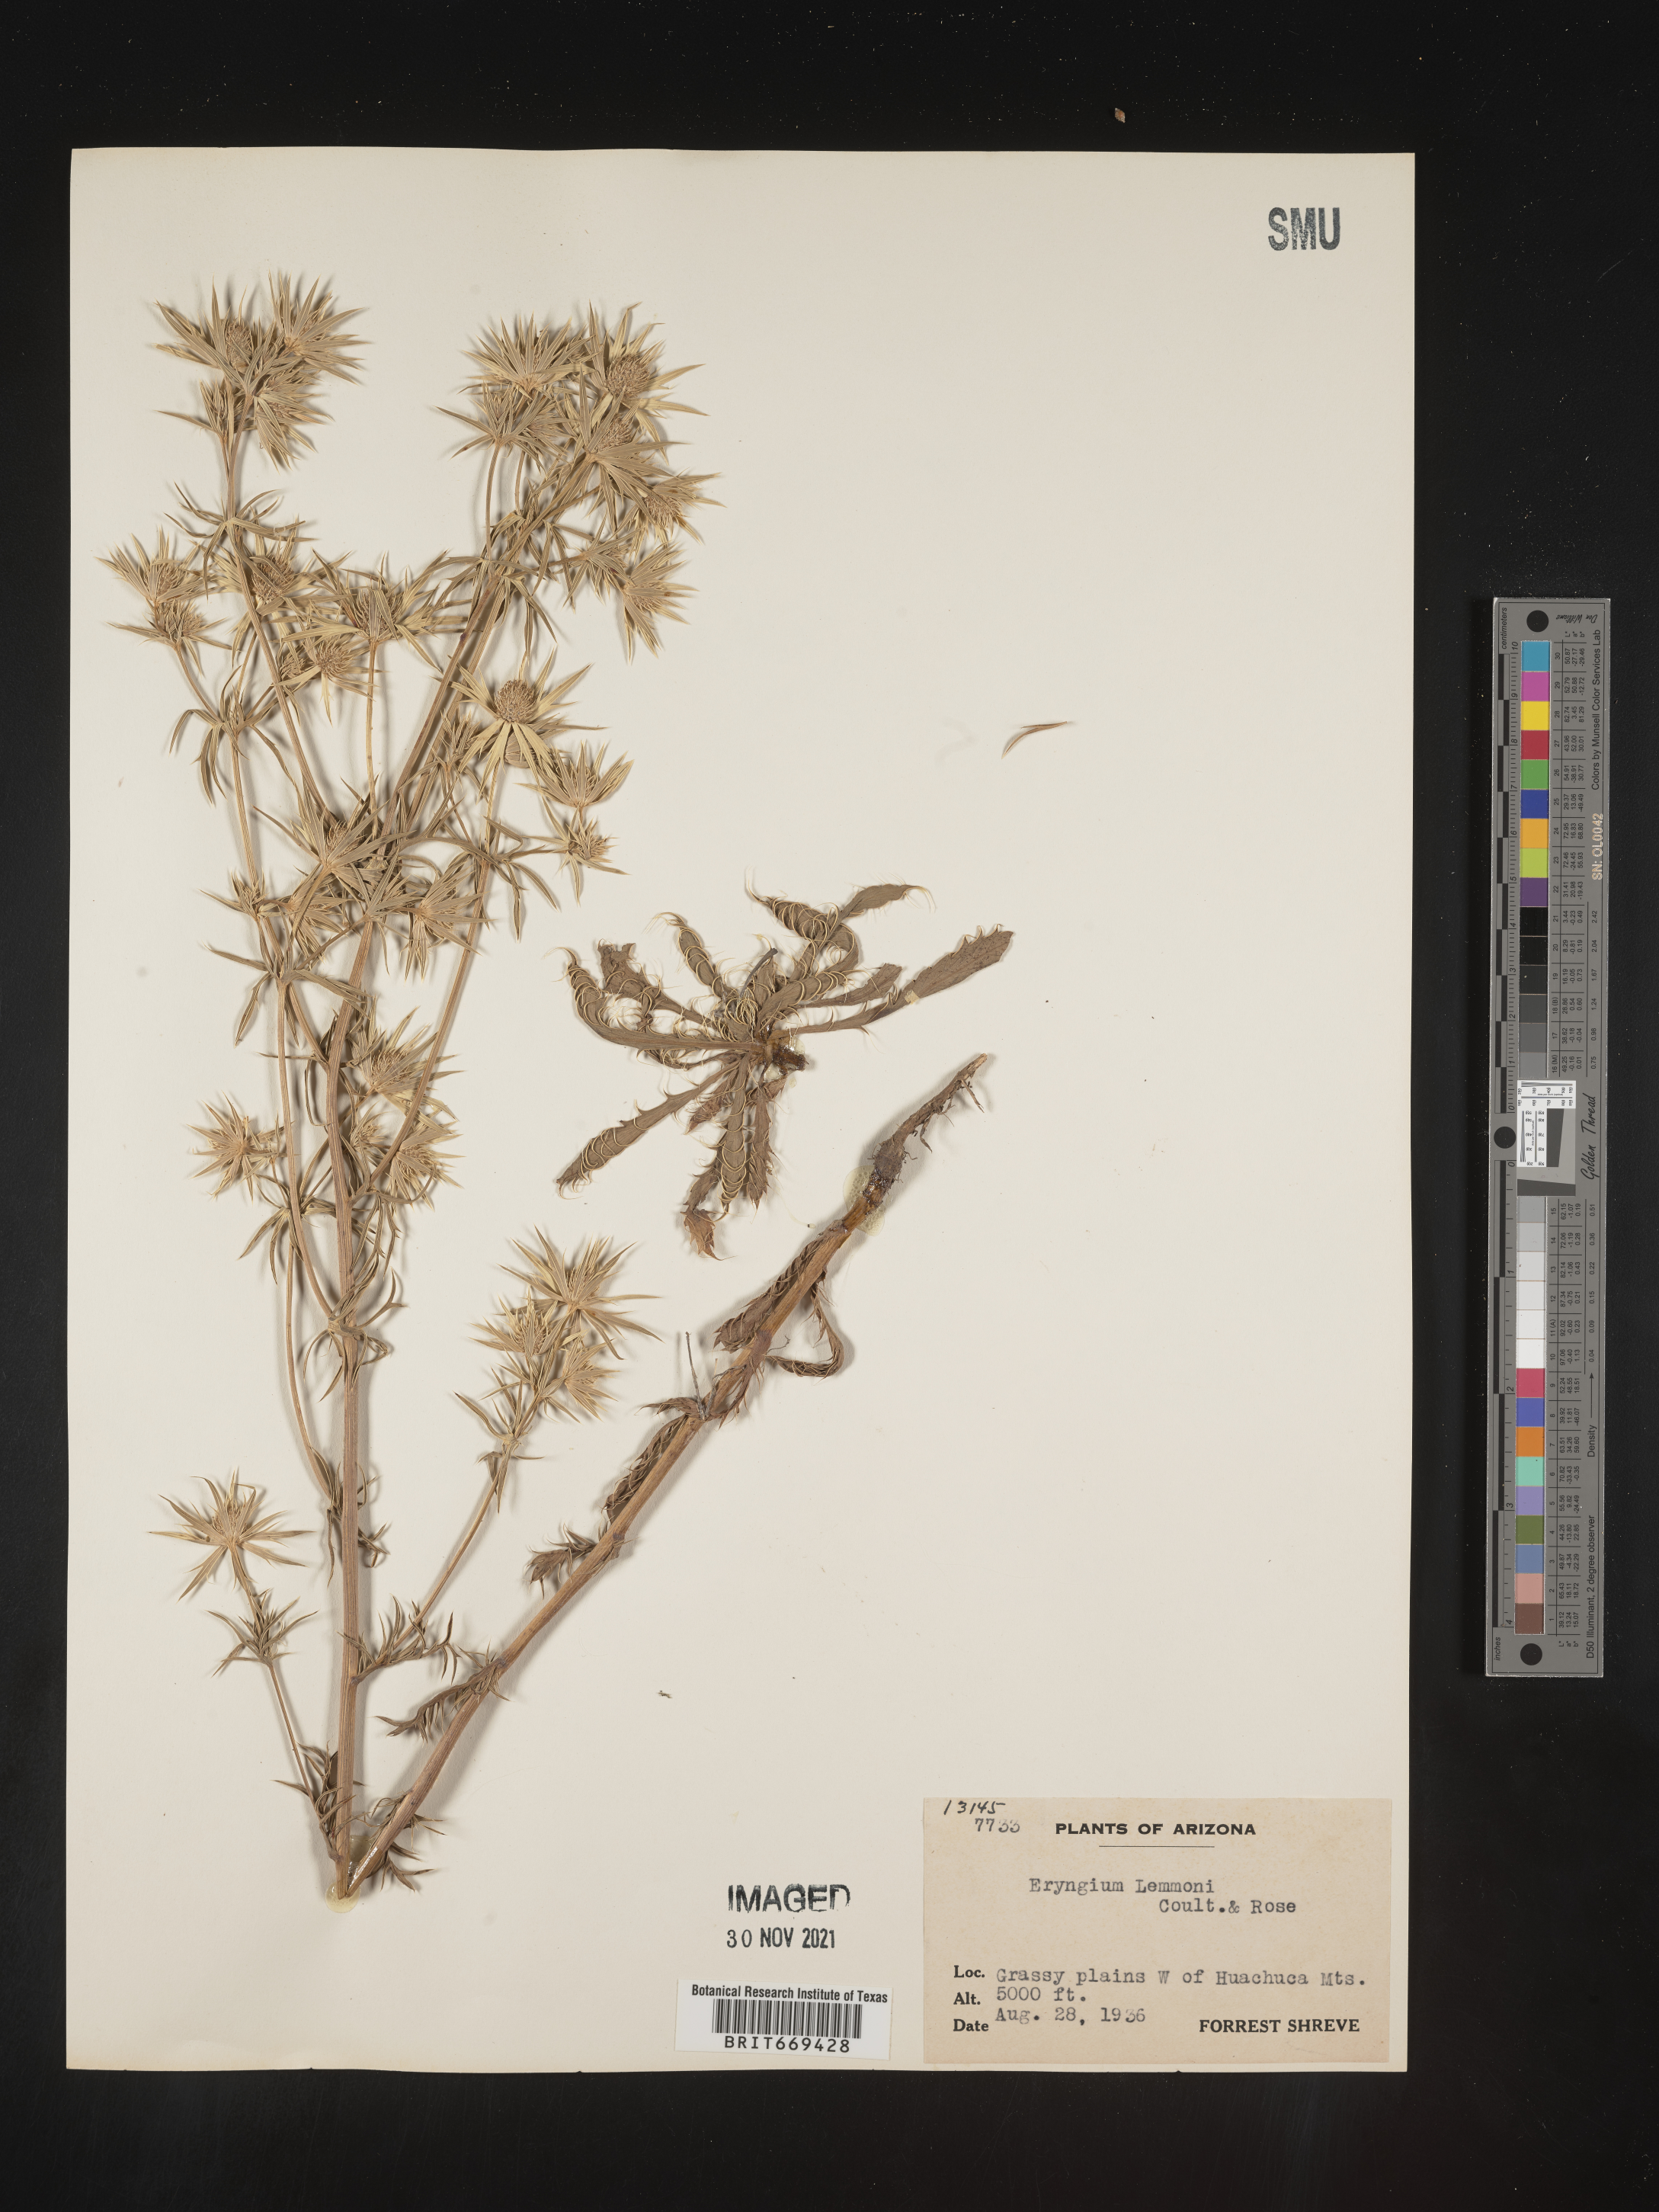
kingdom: Plantae
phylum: Tracheophyta
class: Magnoliopsida
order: Apiales
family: Apiaceae
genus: Eryngium
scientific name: Eryngium
